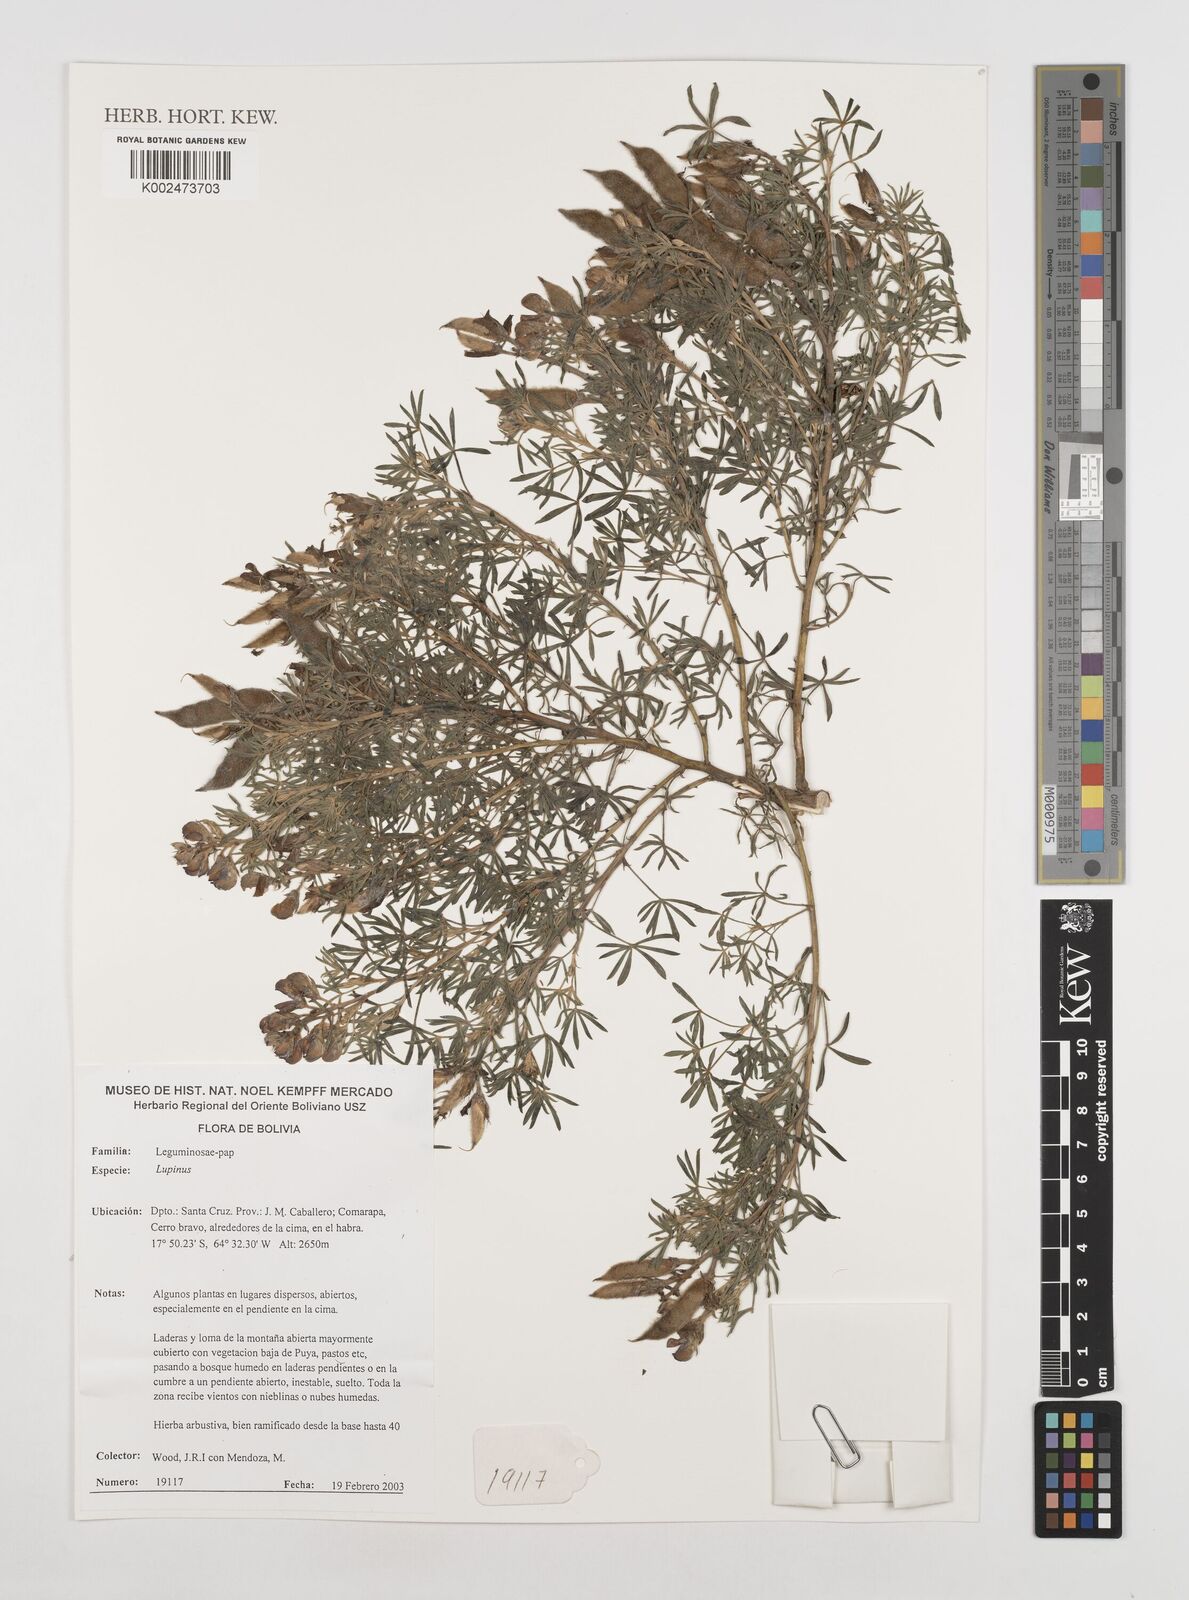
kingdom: Plantae
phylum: Tracheophyta
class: Magnoliopsida
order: Fabales
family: Fabaceae
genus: Lupinus
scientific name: Lupinus
